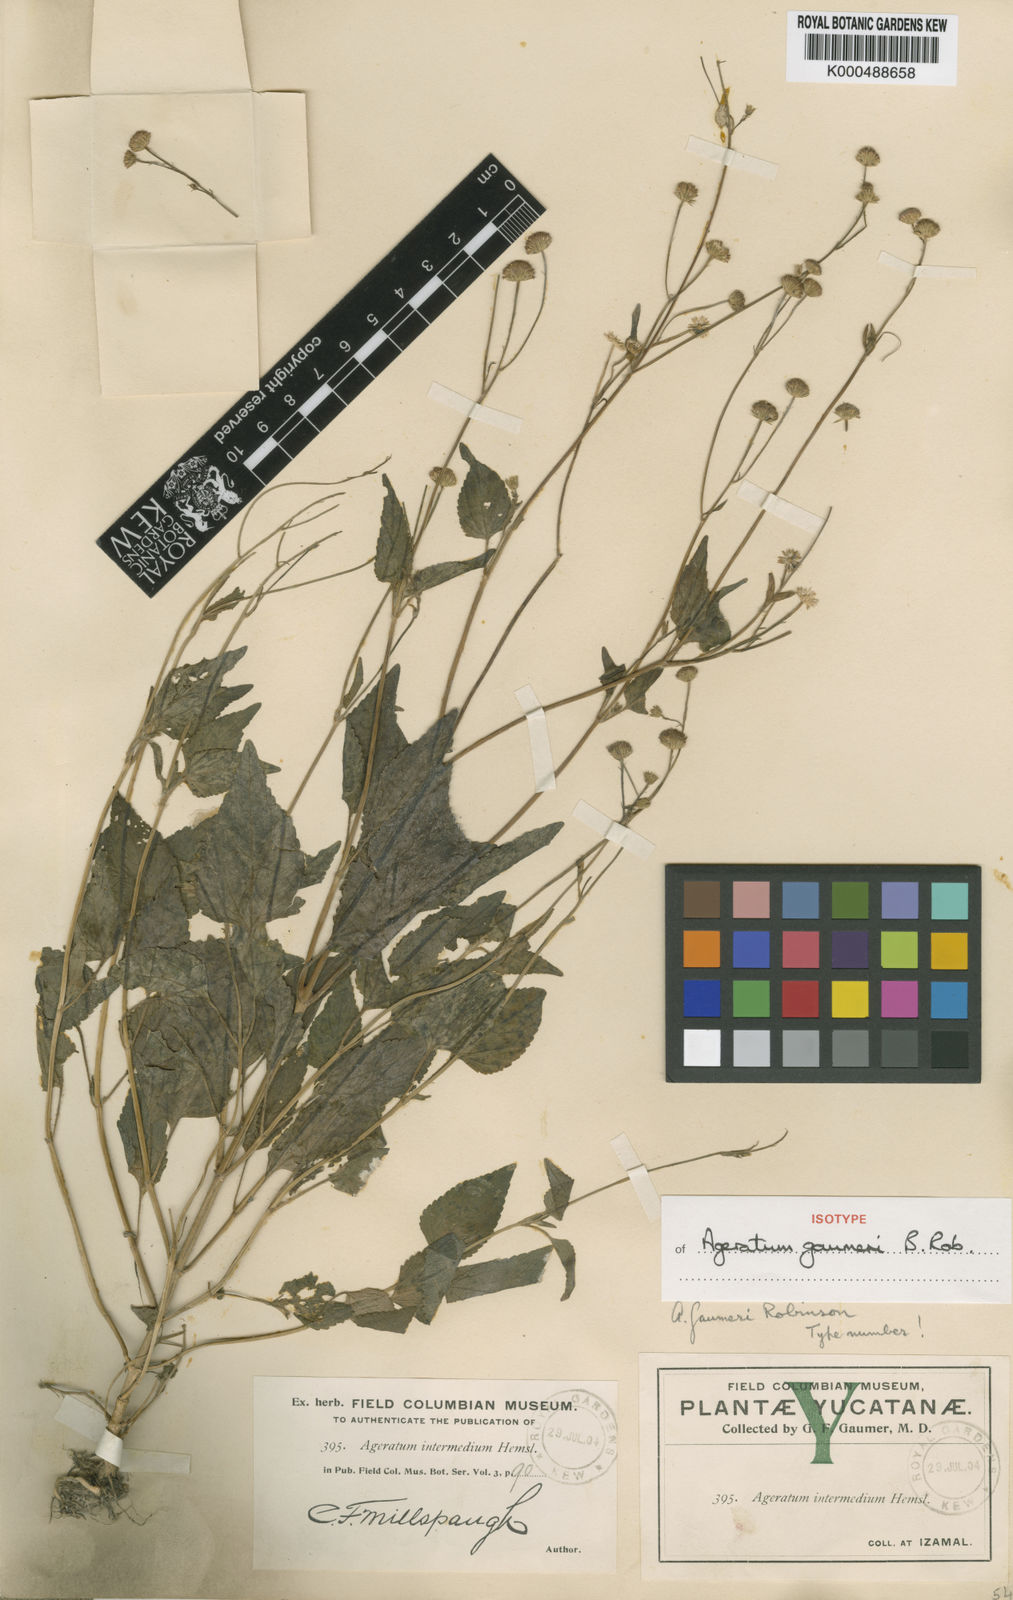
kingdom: Plantae
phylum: Tracheophyta
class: Magnoliopsida
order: Asterales
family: Asteraceae
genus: Ageratum
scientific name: Ageratum gaumeri
